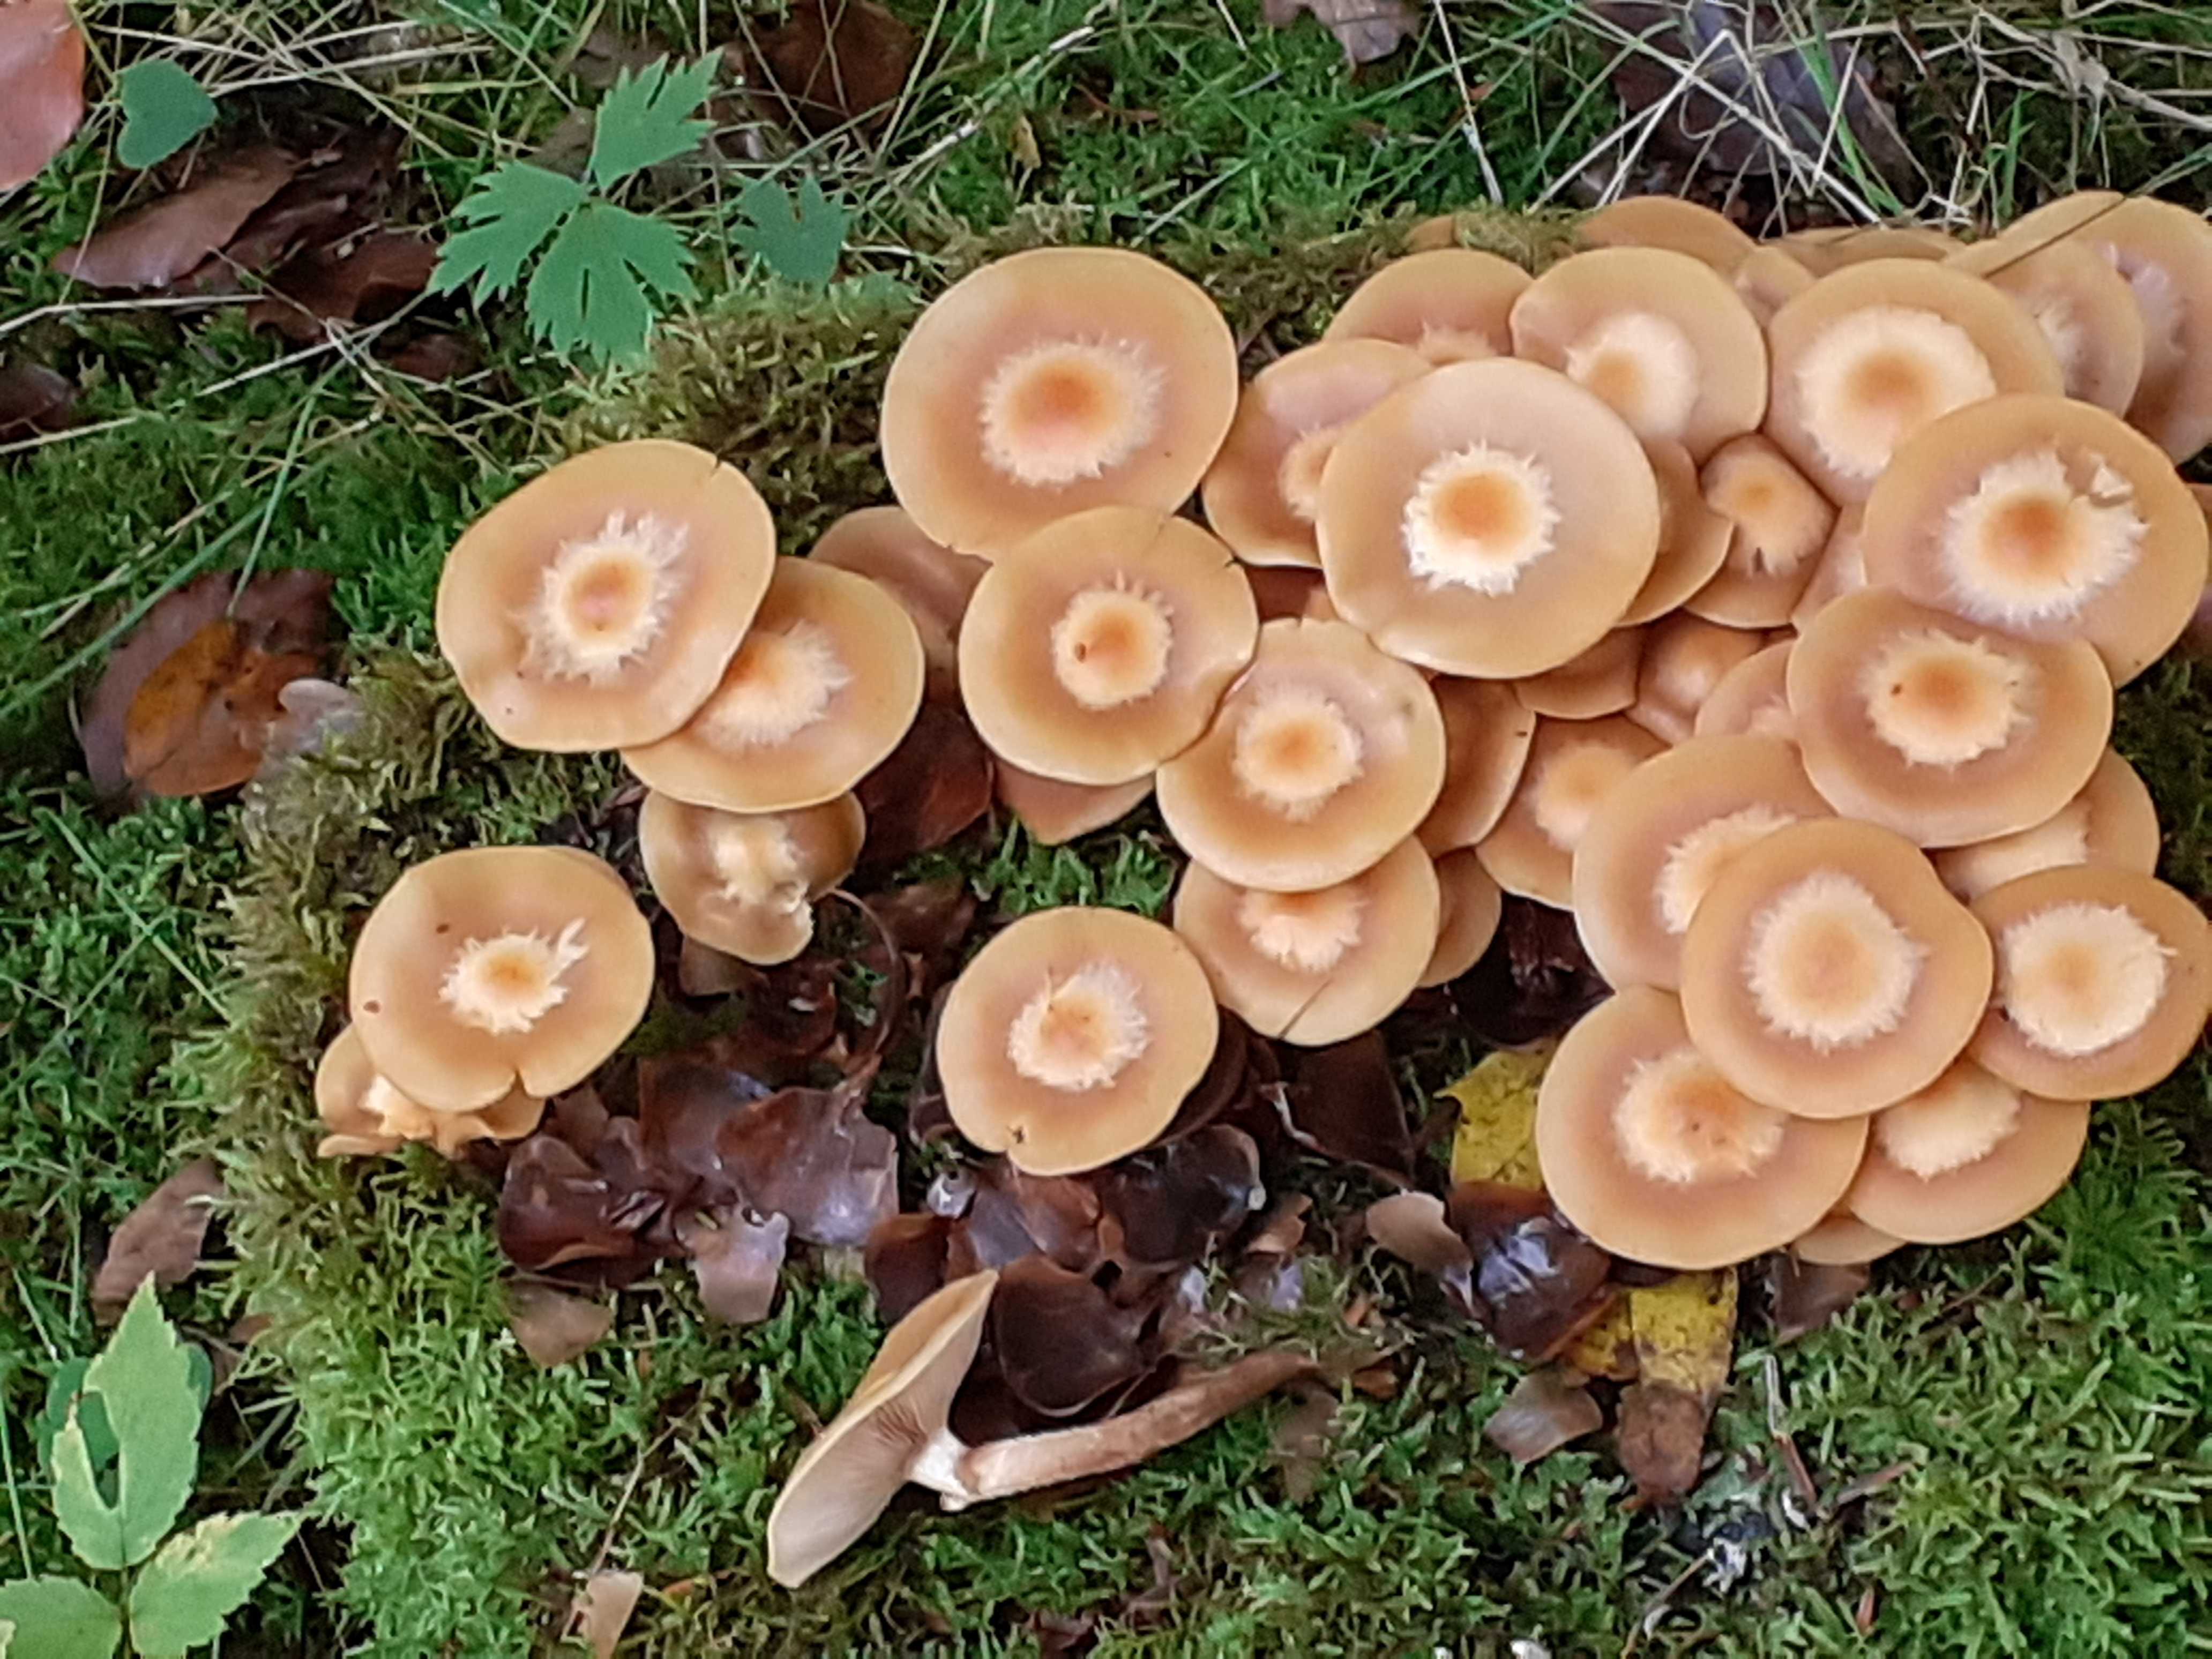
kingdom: Fungi
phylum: Basidiomycota
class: Agaricomycetes
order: Agaricales
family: Strophariaceae
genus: Kuehneromyces
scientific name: Kuehneromyces mutabilis
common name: foranderlig skælhat
